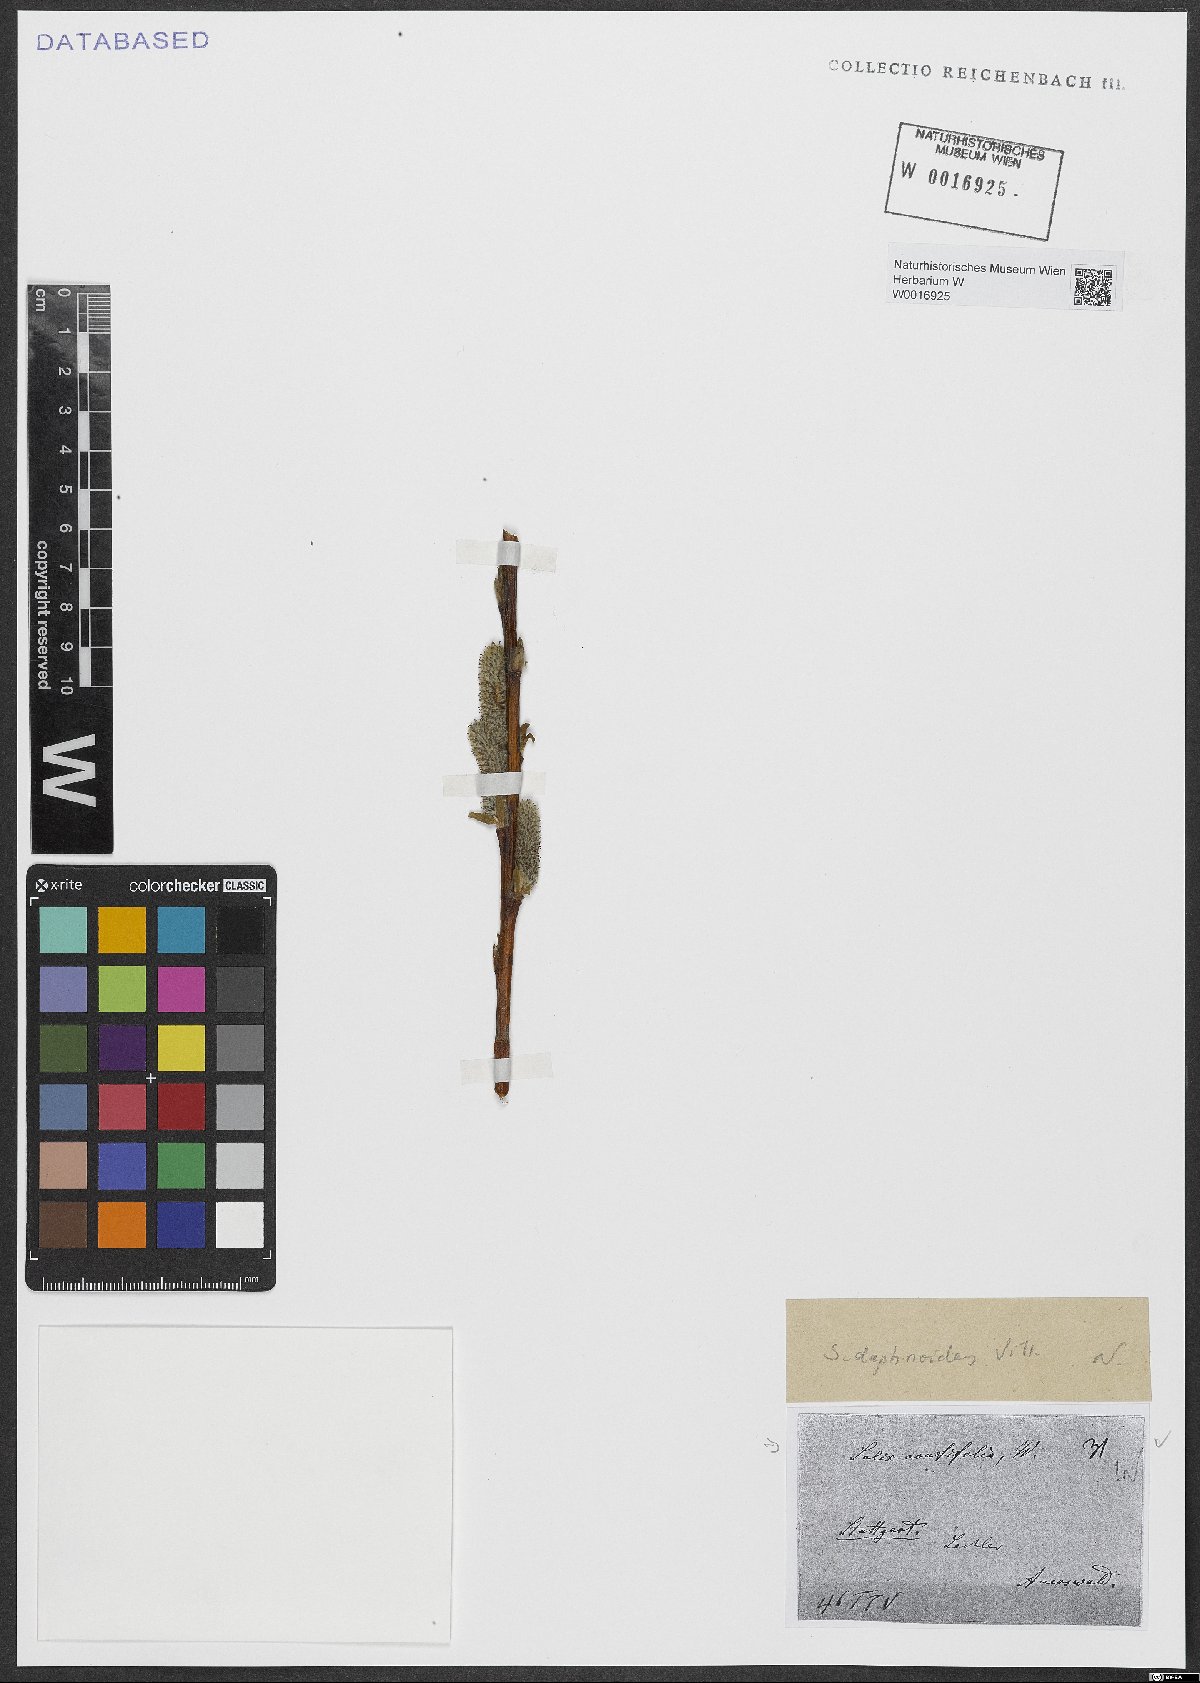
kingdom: Plantae
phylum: Tracheophyta
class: Magnoliopsida
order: Malpighiales
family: Salicaceae
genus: Salix
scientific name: Salix acutifolia
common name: Siberian violet-willow
